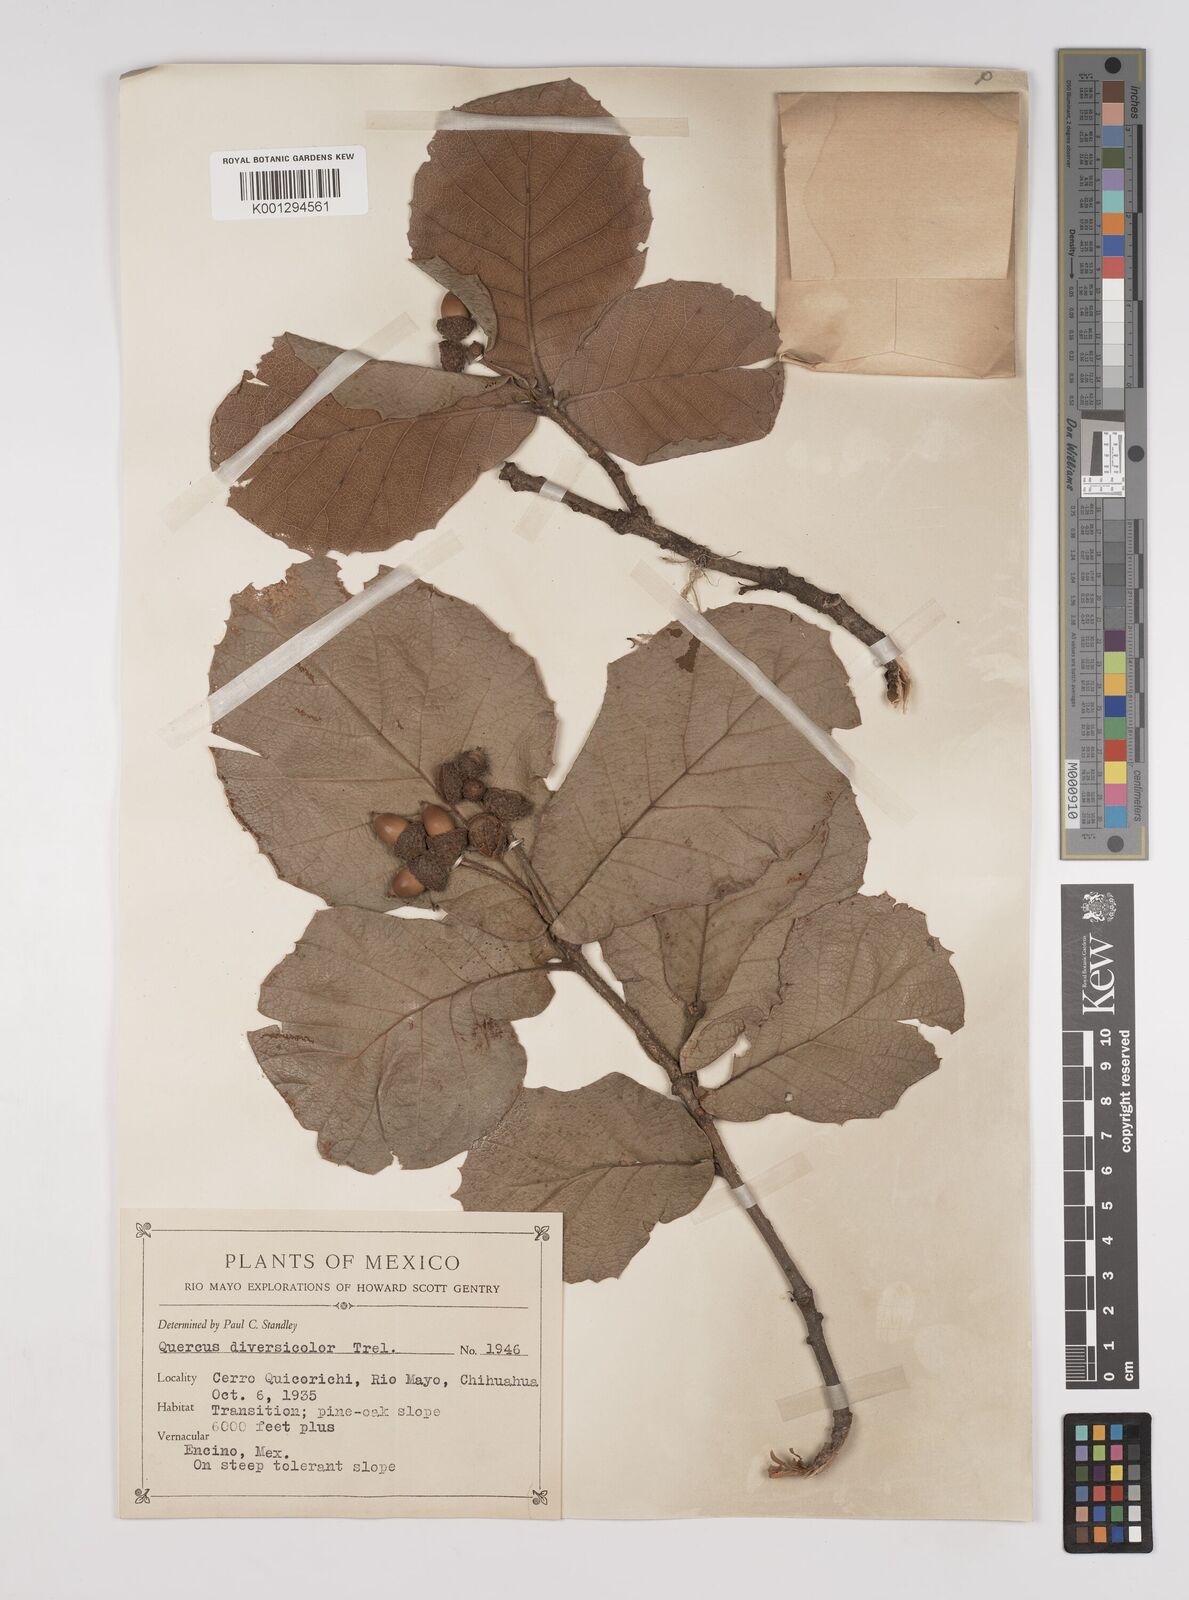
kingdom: Plantae
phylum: Tracheophyta
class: Magnoliopsida
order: Fagales
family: Fagaceae
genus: Quercus
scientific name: Quercus rugosa
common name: Netleaf oak
